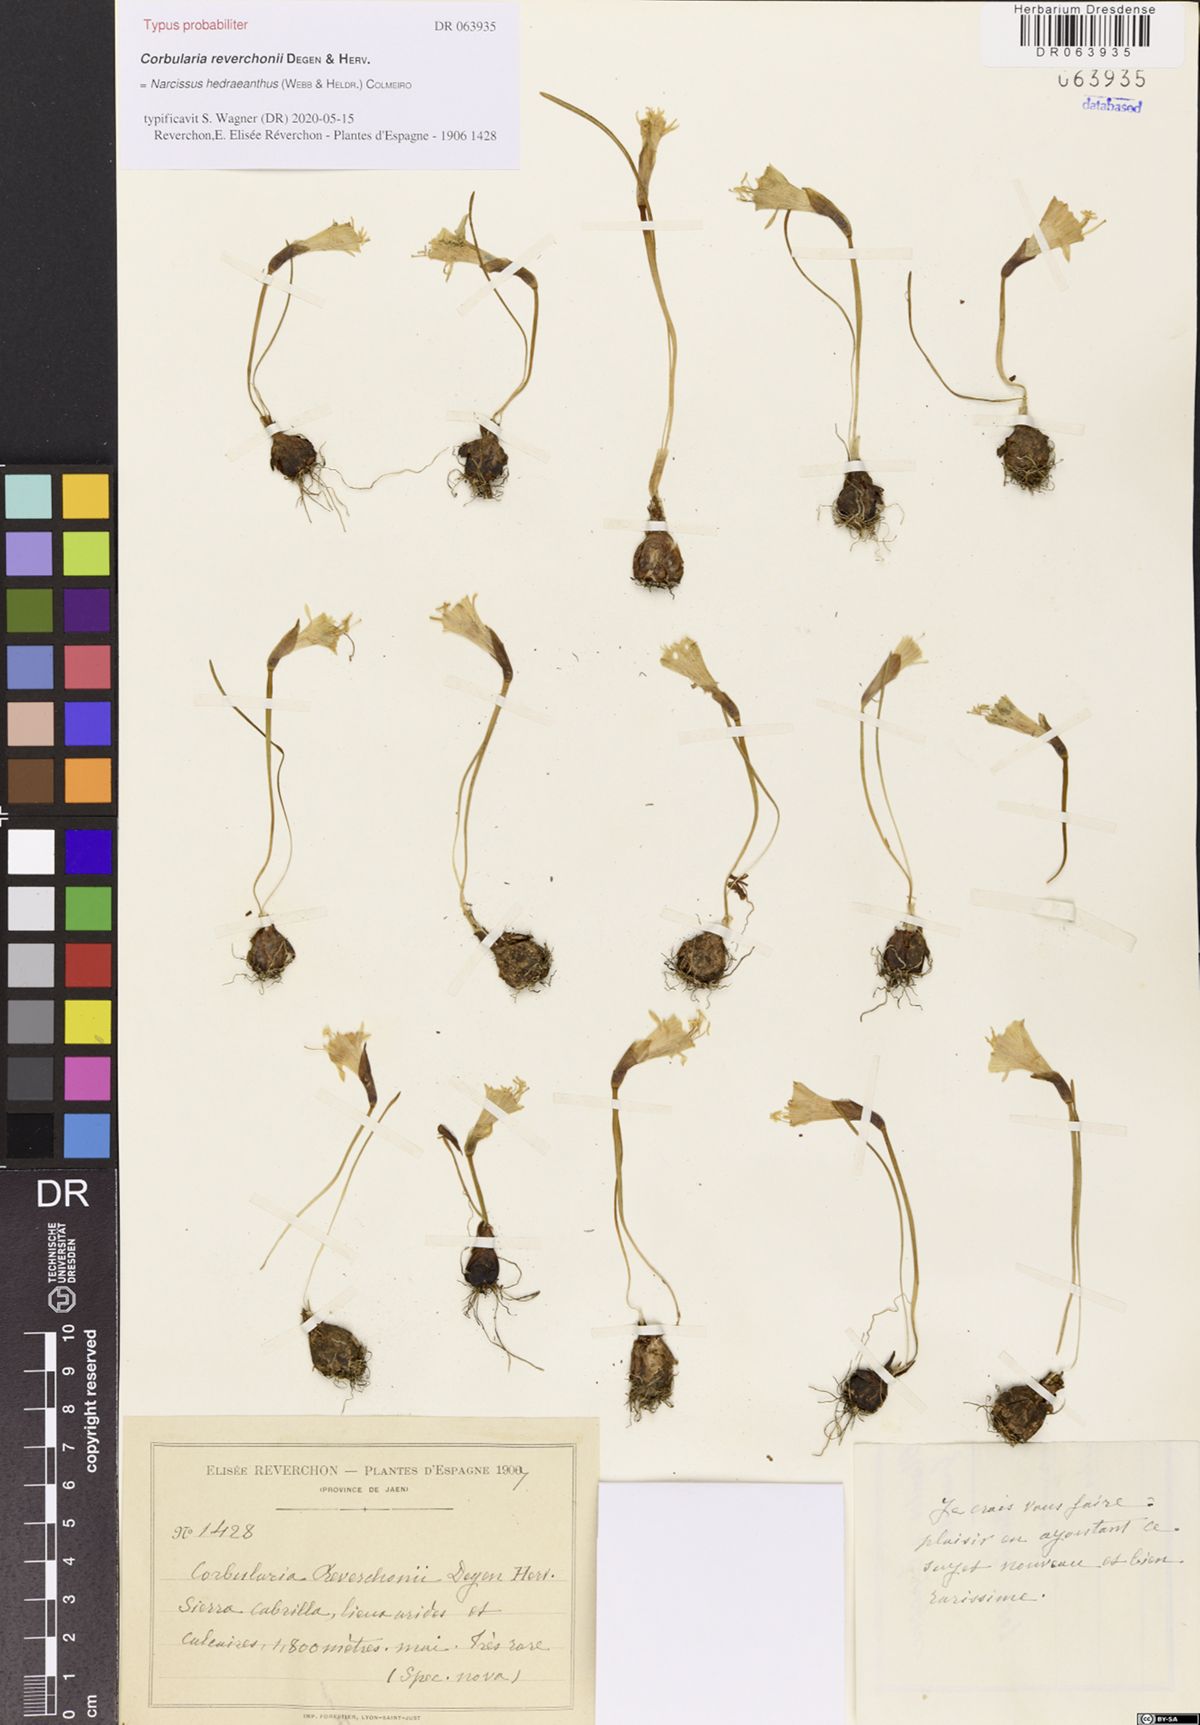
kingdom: Plantae
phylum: Tracheophyta
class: Liliopsida
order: Asparagales
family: Amaryllidaceae
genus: Narcissus
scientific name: Narcissus hedraeanthus
